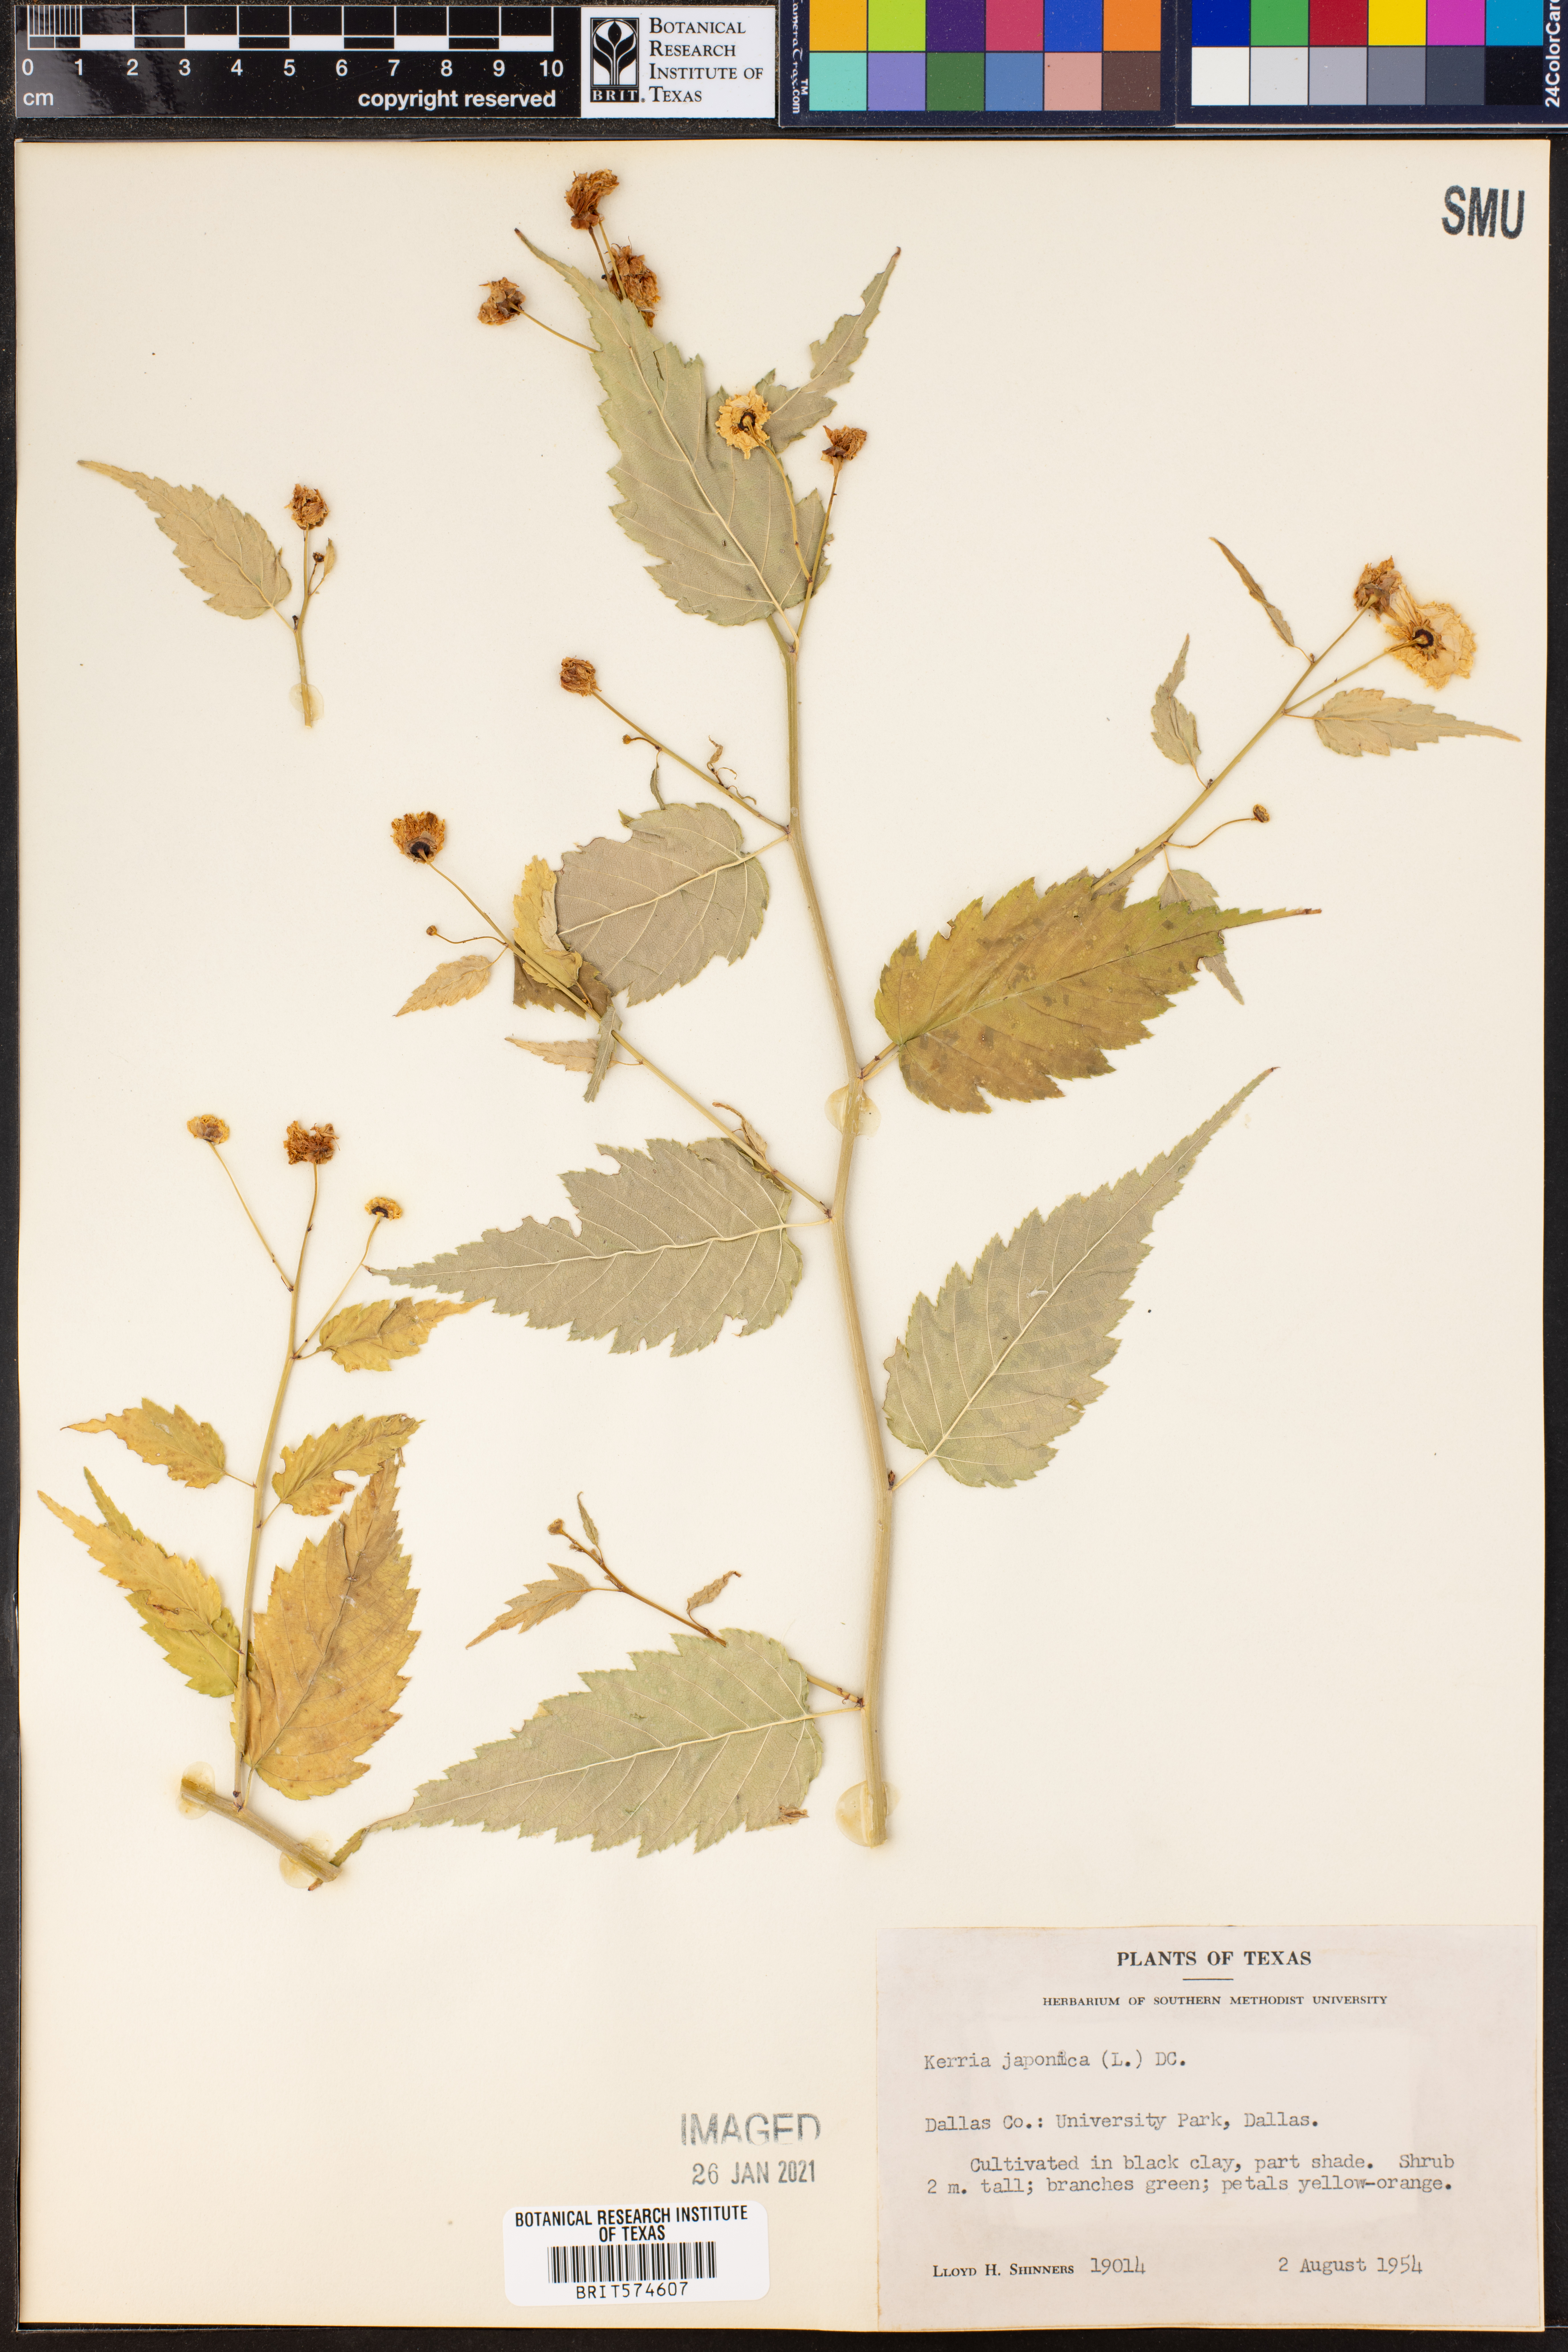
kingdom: Plantae
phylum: Tracheophyta
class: Magnoliopsida
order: Rosales
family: Rosaceae
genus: Kerria
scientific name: Kerria japonica
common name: Japanese kerria
